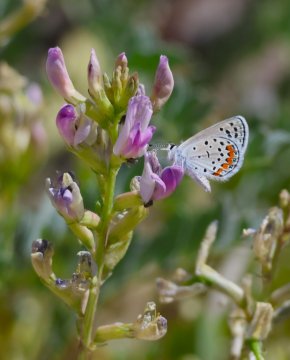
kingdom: Animalia
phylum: Arthropoda
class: Insecta
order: Lepidoptera
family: Lycaenidae
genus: Plebejus
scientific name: Plebejus acmon
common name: Acmon Blue
